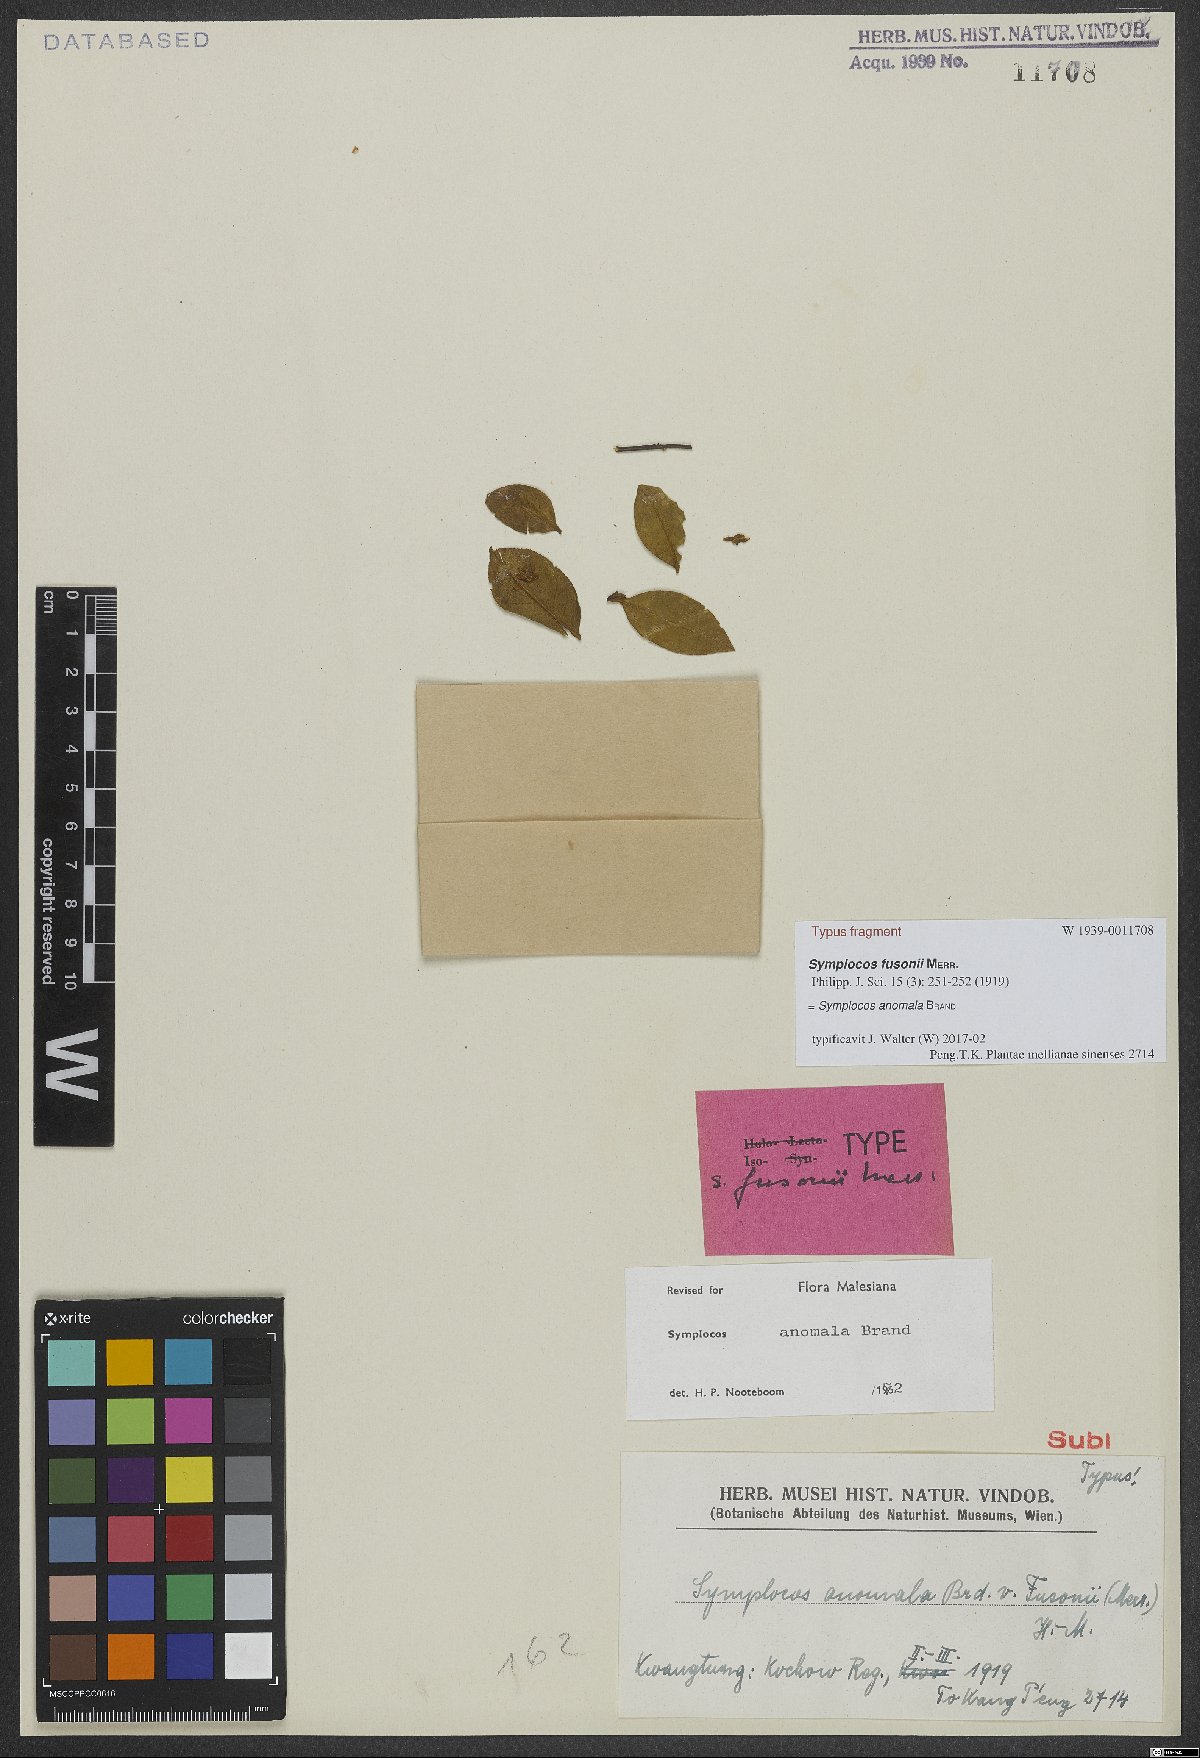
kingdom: Plantae
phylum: Tracheophyta
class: Magnoliopsida
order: Ericales
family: Symplocaceae
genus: Symplocos
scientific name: Symplocos anomala
